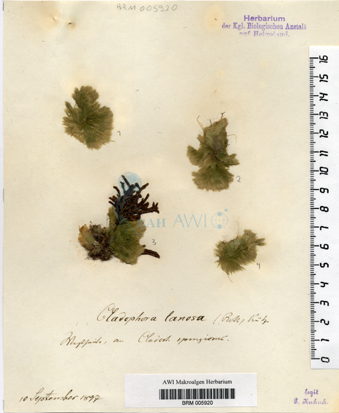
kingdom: Plantae
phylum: Chlorophyta
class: Ulvophyceae
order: Ulotrichales
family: Ulotrichaceae
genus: Acrosiphonia
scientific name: Acrosiphonia arcta
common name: Green tarantula weed
